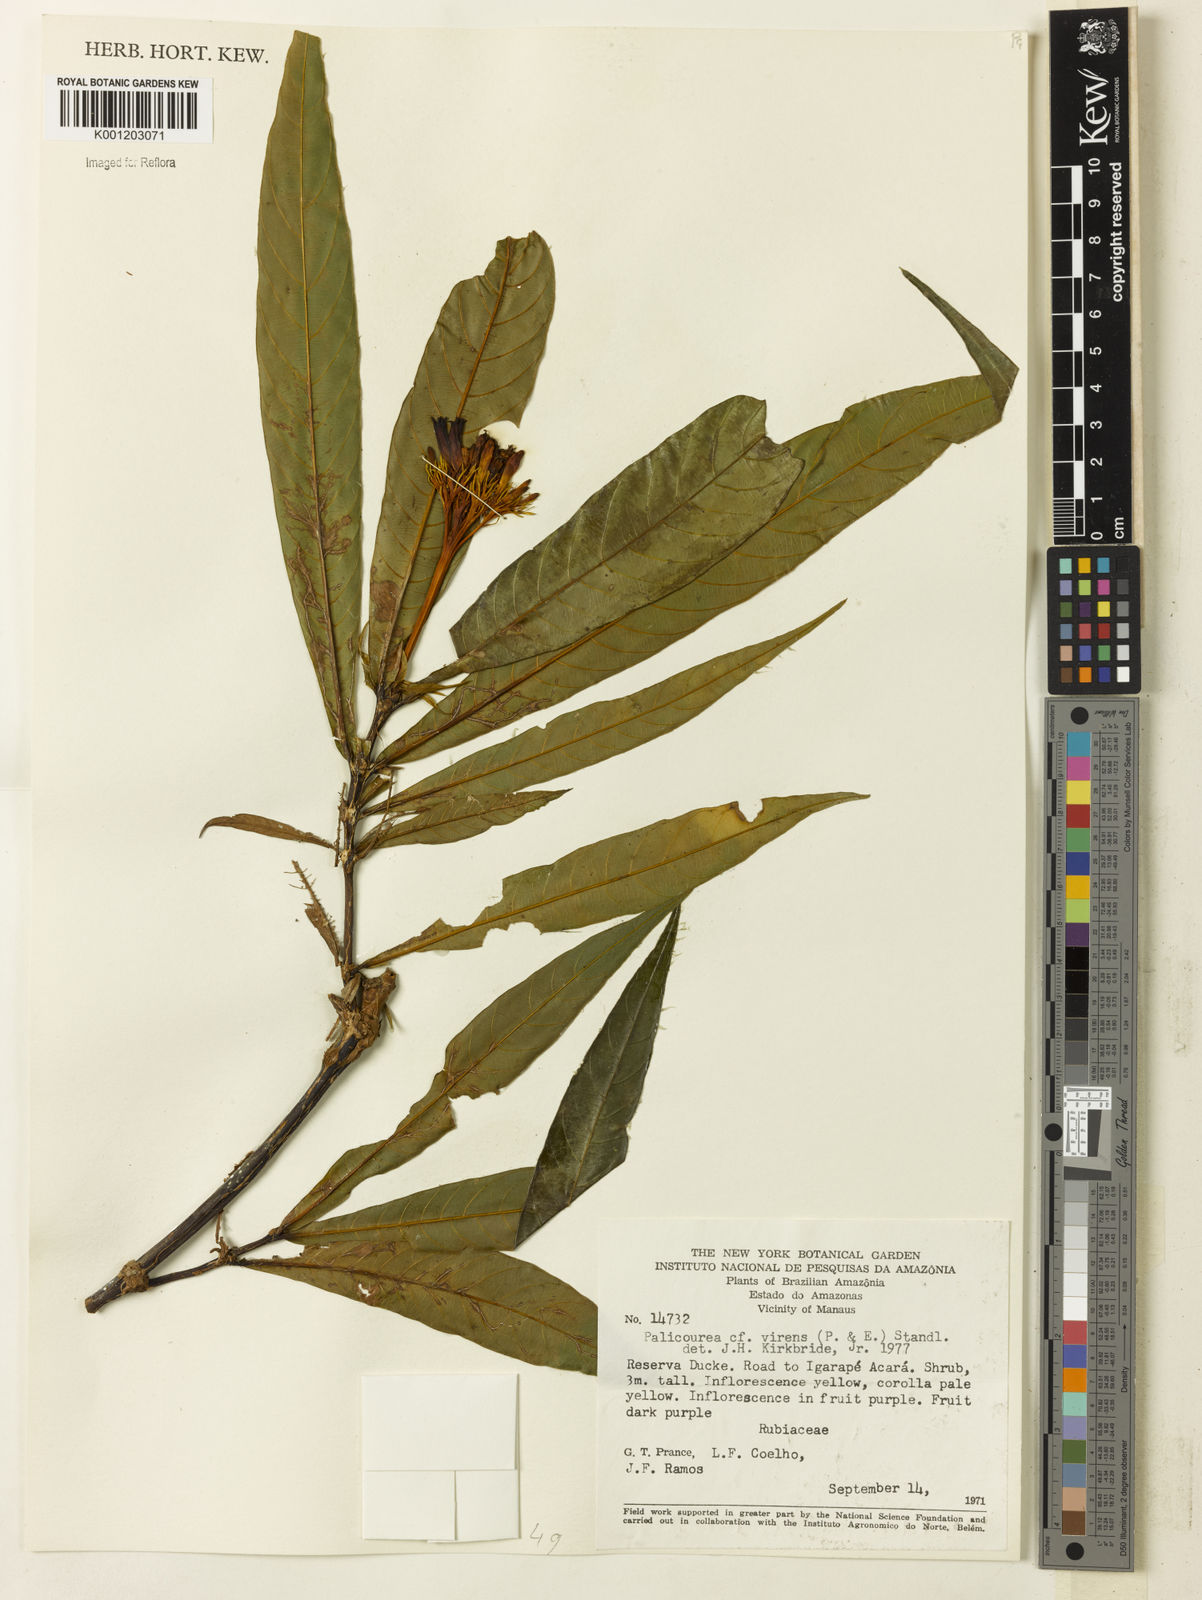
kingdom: Plantae
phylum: Tracheophyta
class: Magnoliopsida
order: Gentianales
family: Rubiaceae
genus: Palicourea
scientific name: Palicourea virens
